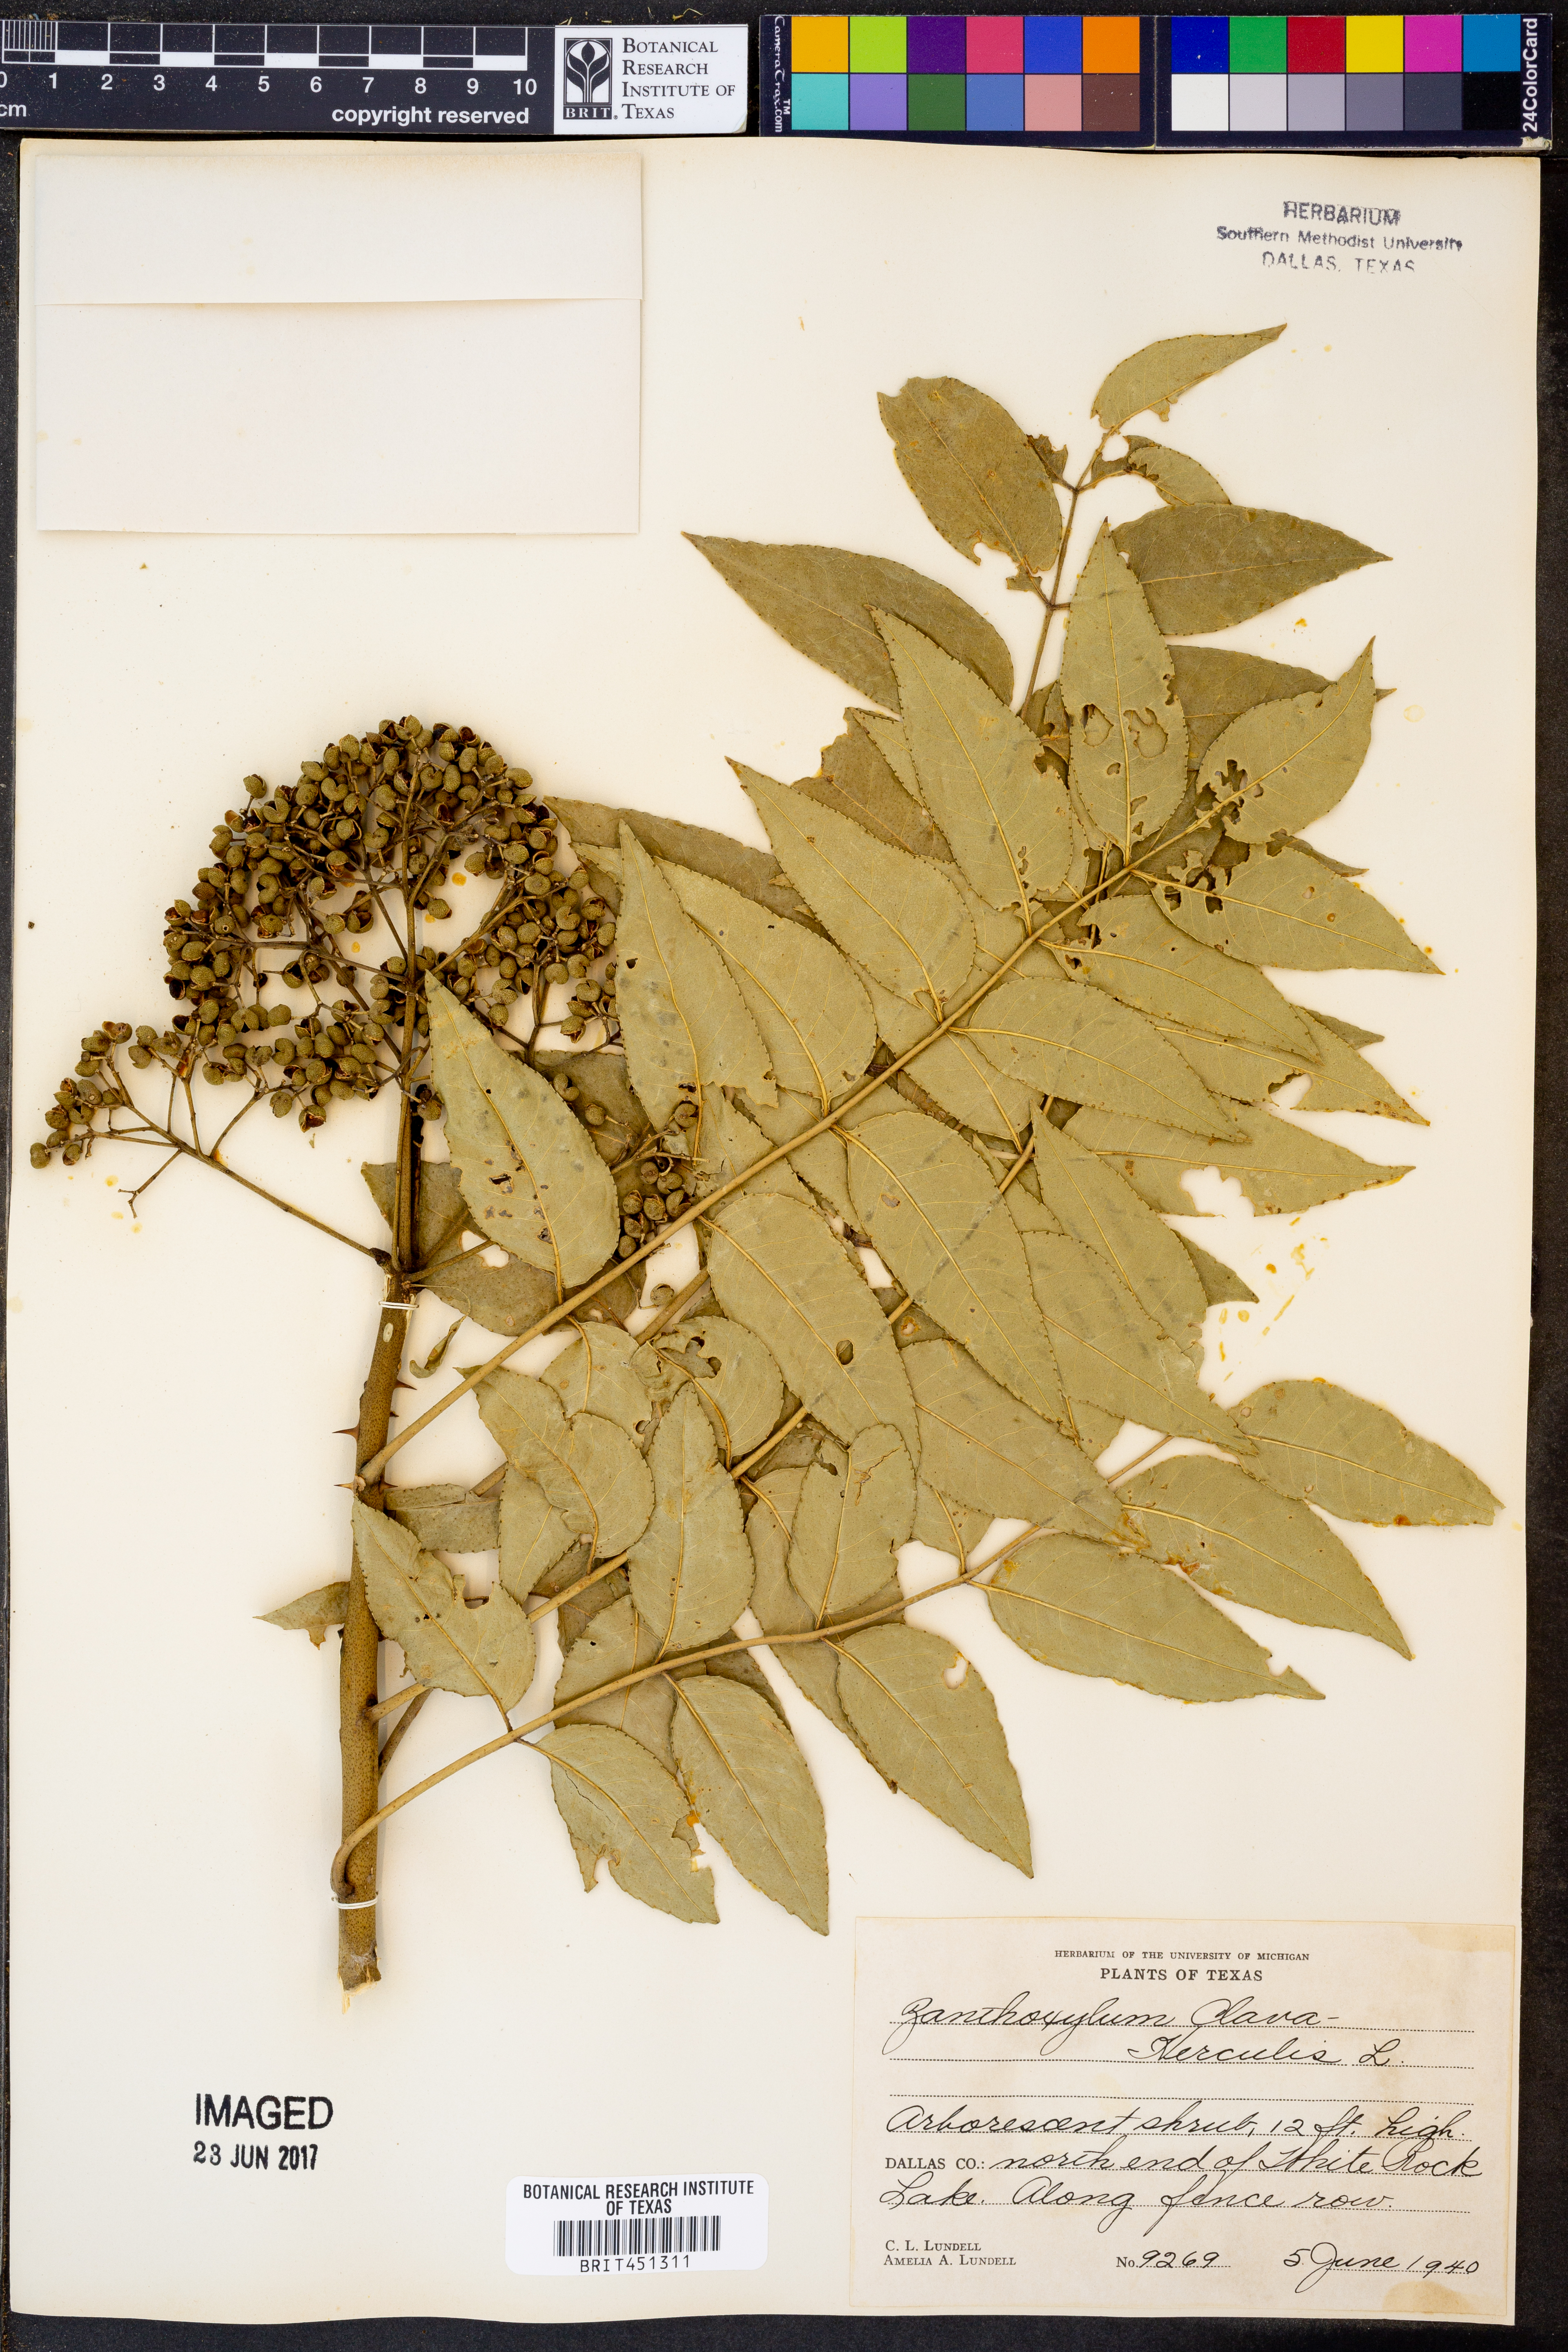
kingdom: Plantae
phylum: Tracheophyta
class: Magnoliopsida
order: Sapindales
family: Rutaceae
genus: Zanthoxylum
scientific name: Zanthoxylum avicennae
